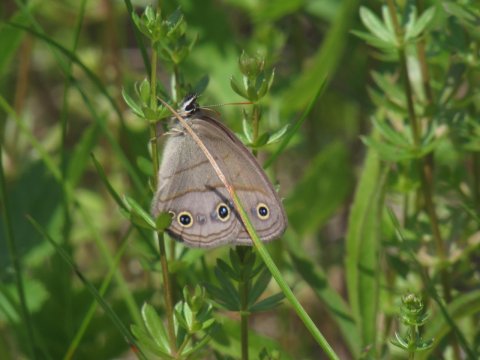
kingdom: Animalia
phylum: Arthropoda
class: Insecta
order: Lepidoptera
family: Nymphalidae
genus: Euptychia
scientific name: Euptychia cymela
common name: Little Wood Satyr
